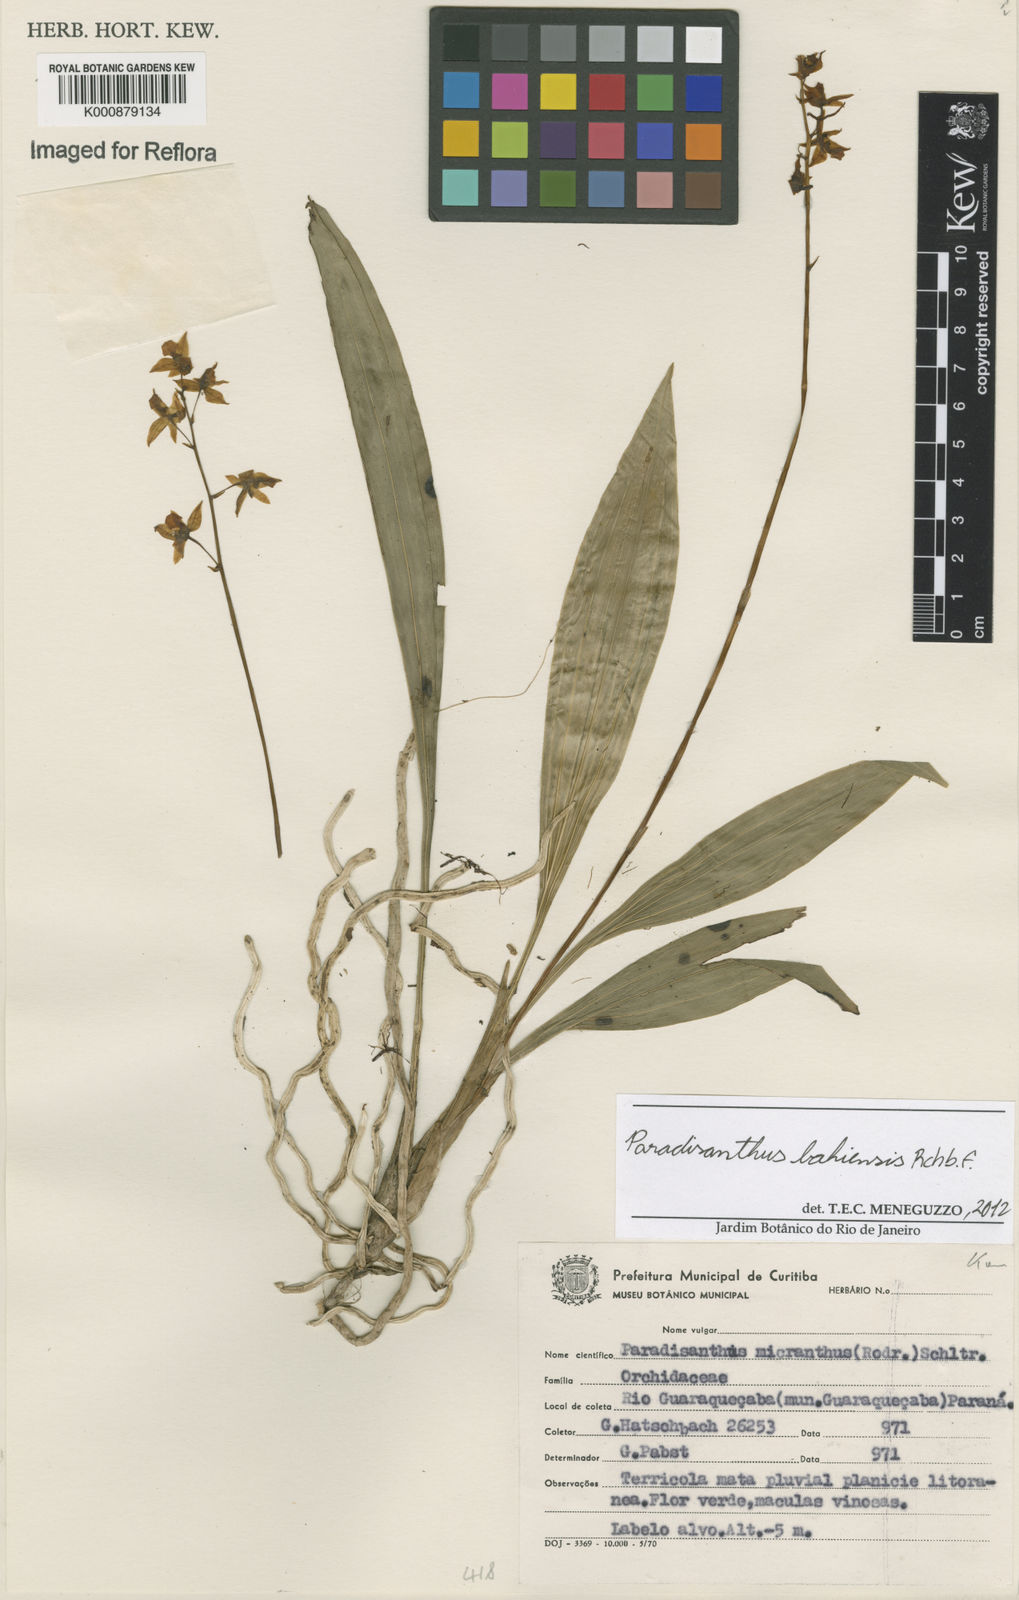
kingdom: Plantae
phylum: Tracheophyta
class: Liliopsida
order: Asparagales
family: Orchidaceae
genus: Paradisanthus
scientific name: Paradisanthus bahiensis
